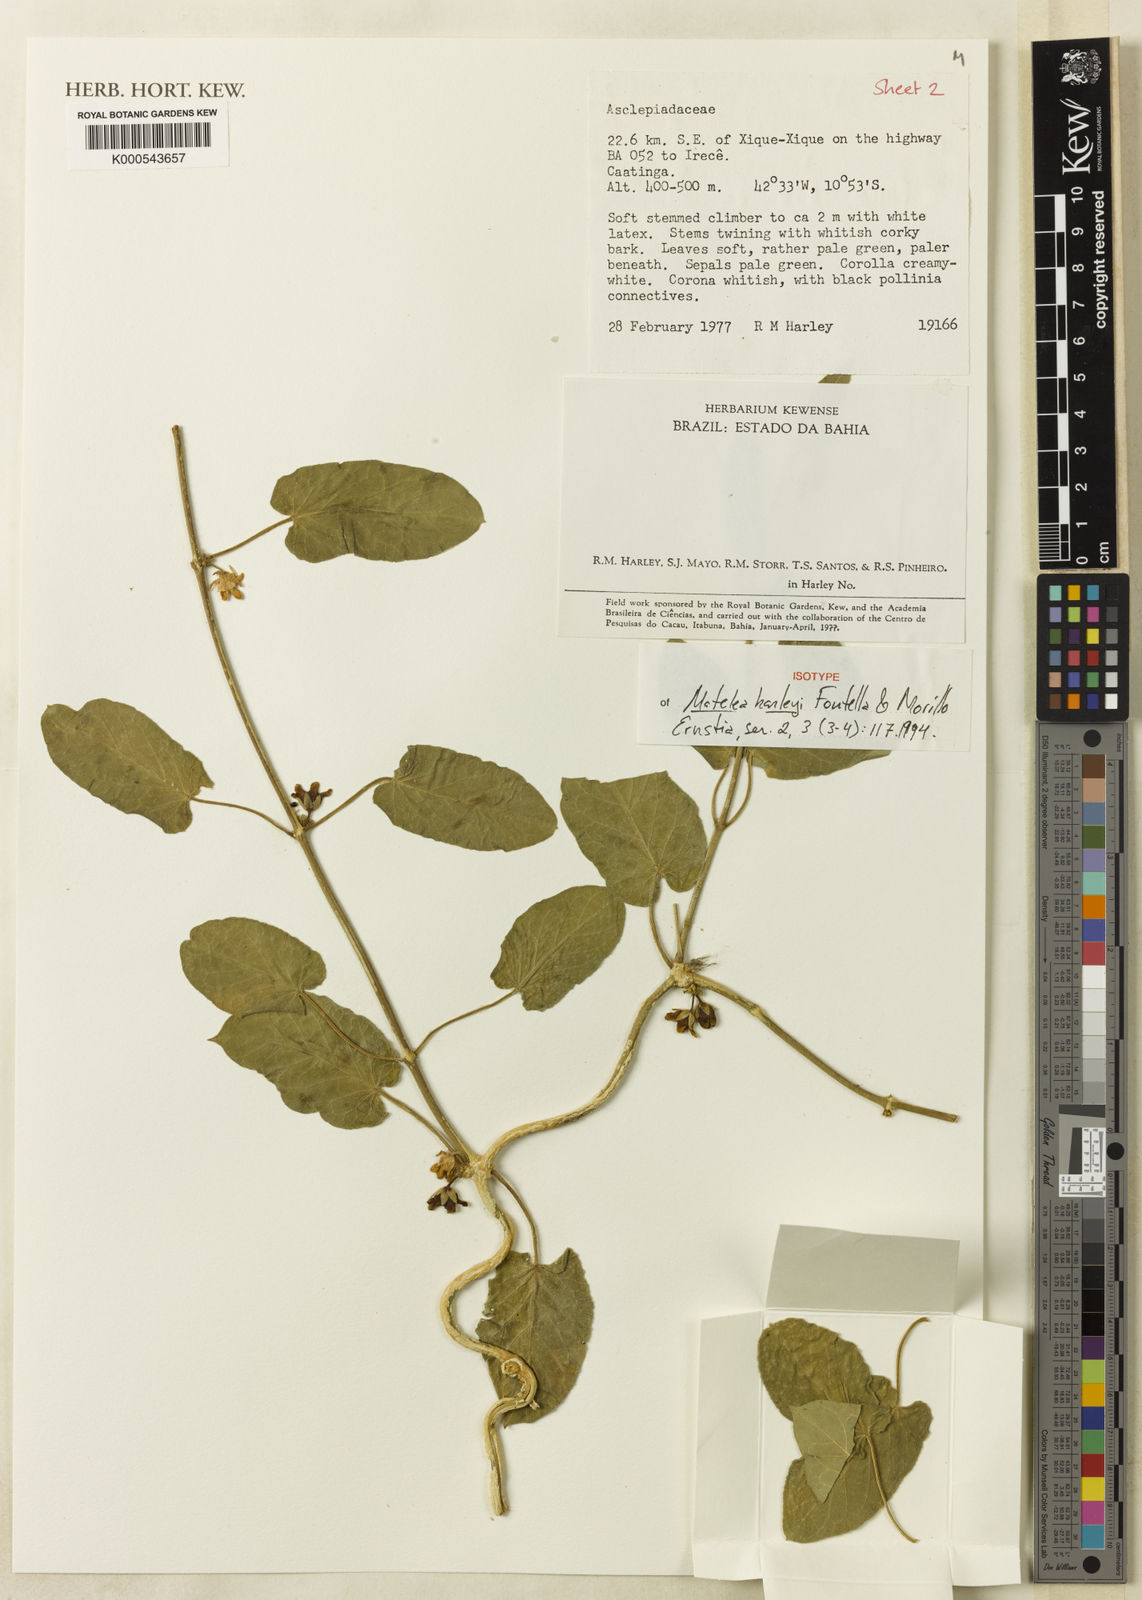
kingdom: Plantae
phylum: Tracheophyta
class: Magnoliopsida
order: Gentianales
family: Apocynaceae
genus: Ibatia
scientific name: Ibatia harleyi
